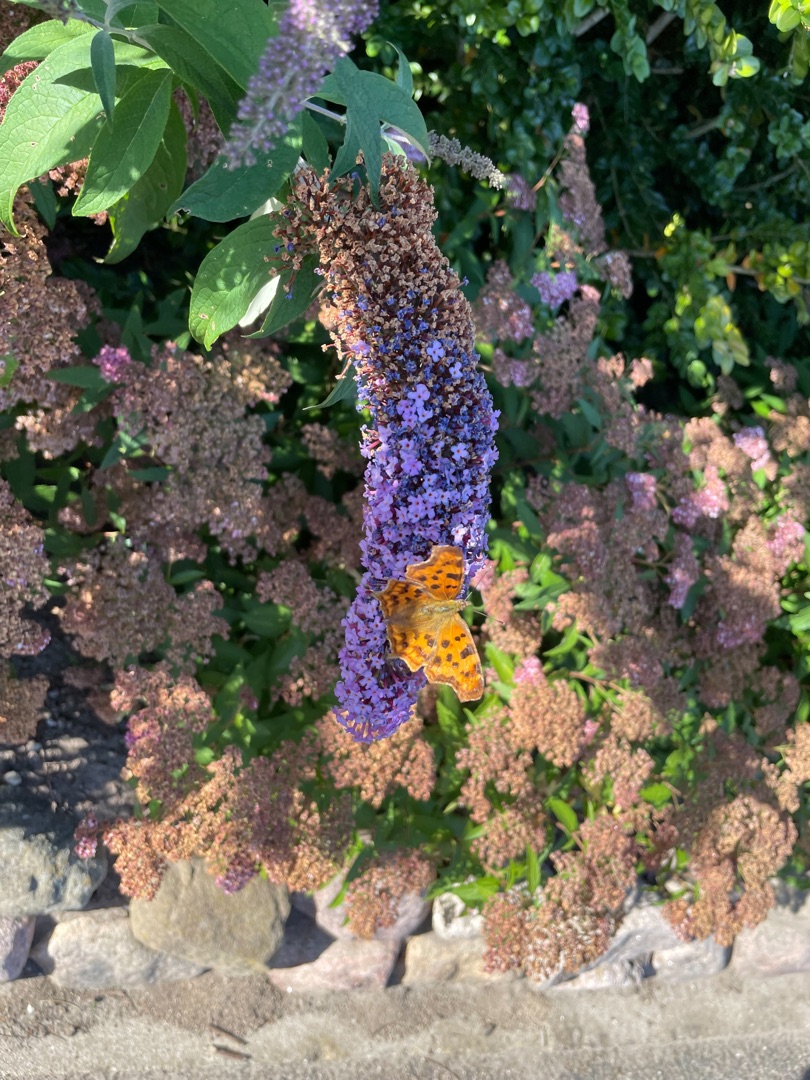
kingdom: Animalia
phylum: Arthropoda
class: Insecta
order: Lepidoptera
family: Nymphalidae
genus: Polygonia
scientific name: Polygonia c-album
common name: Det hvide C
